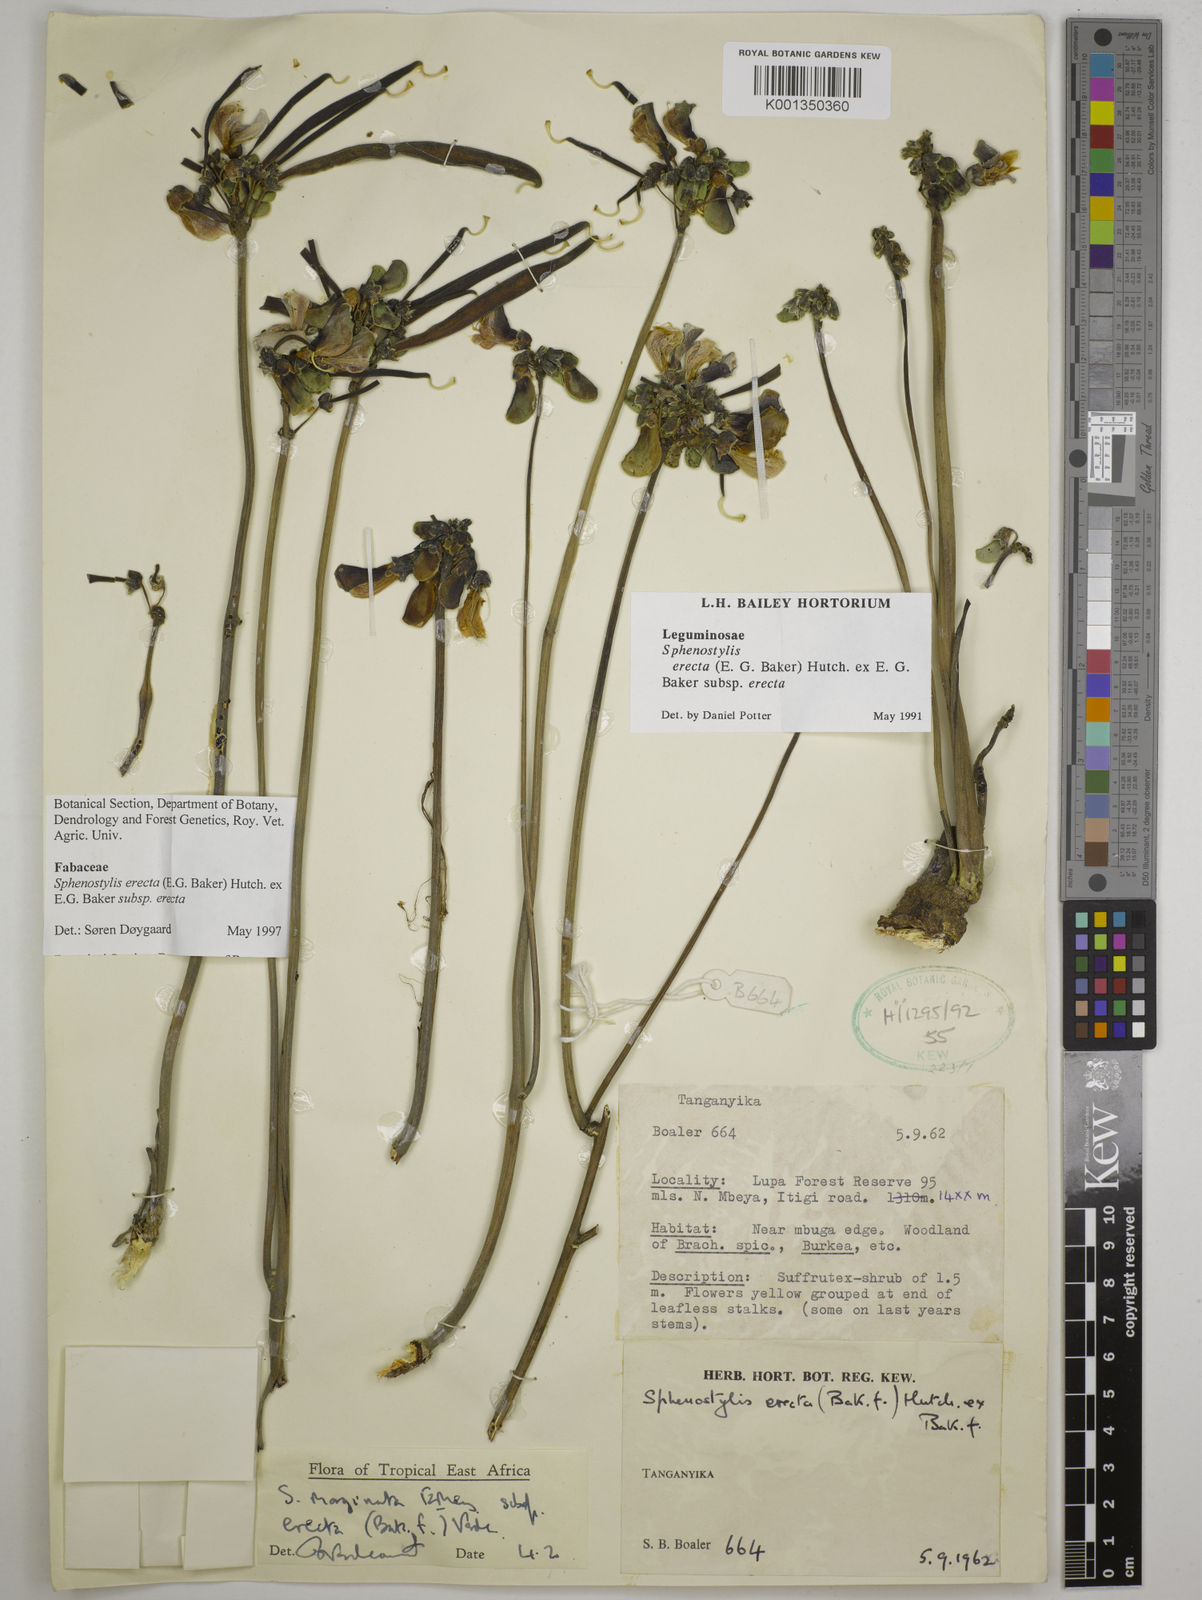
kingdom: Plantae
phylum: Tracheophyta
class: Magnoliopsida
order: Fabales
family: Fabaceae
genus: Sphenostylis
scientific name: Sphenostylis erecta
